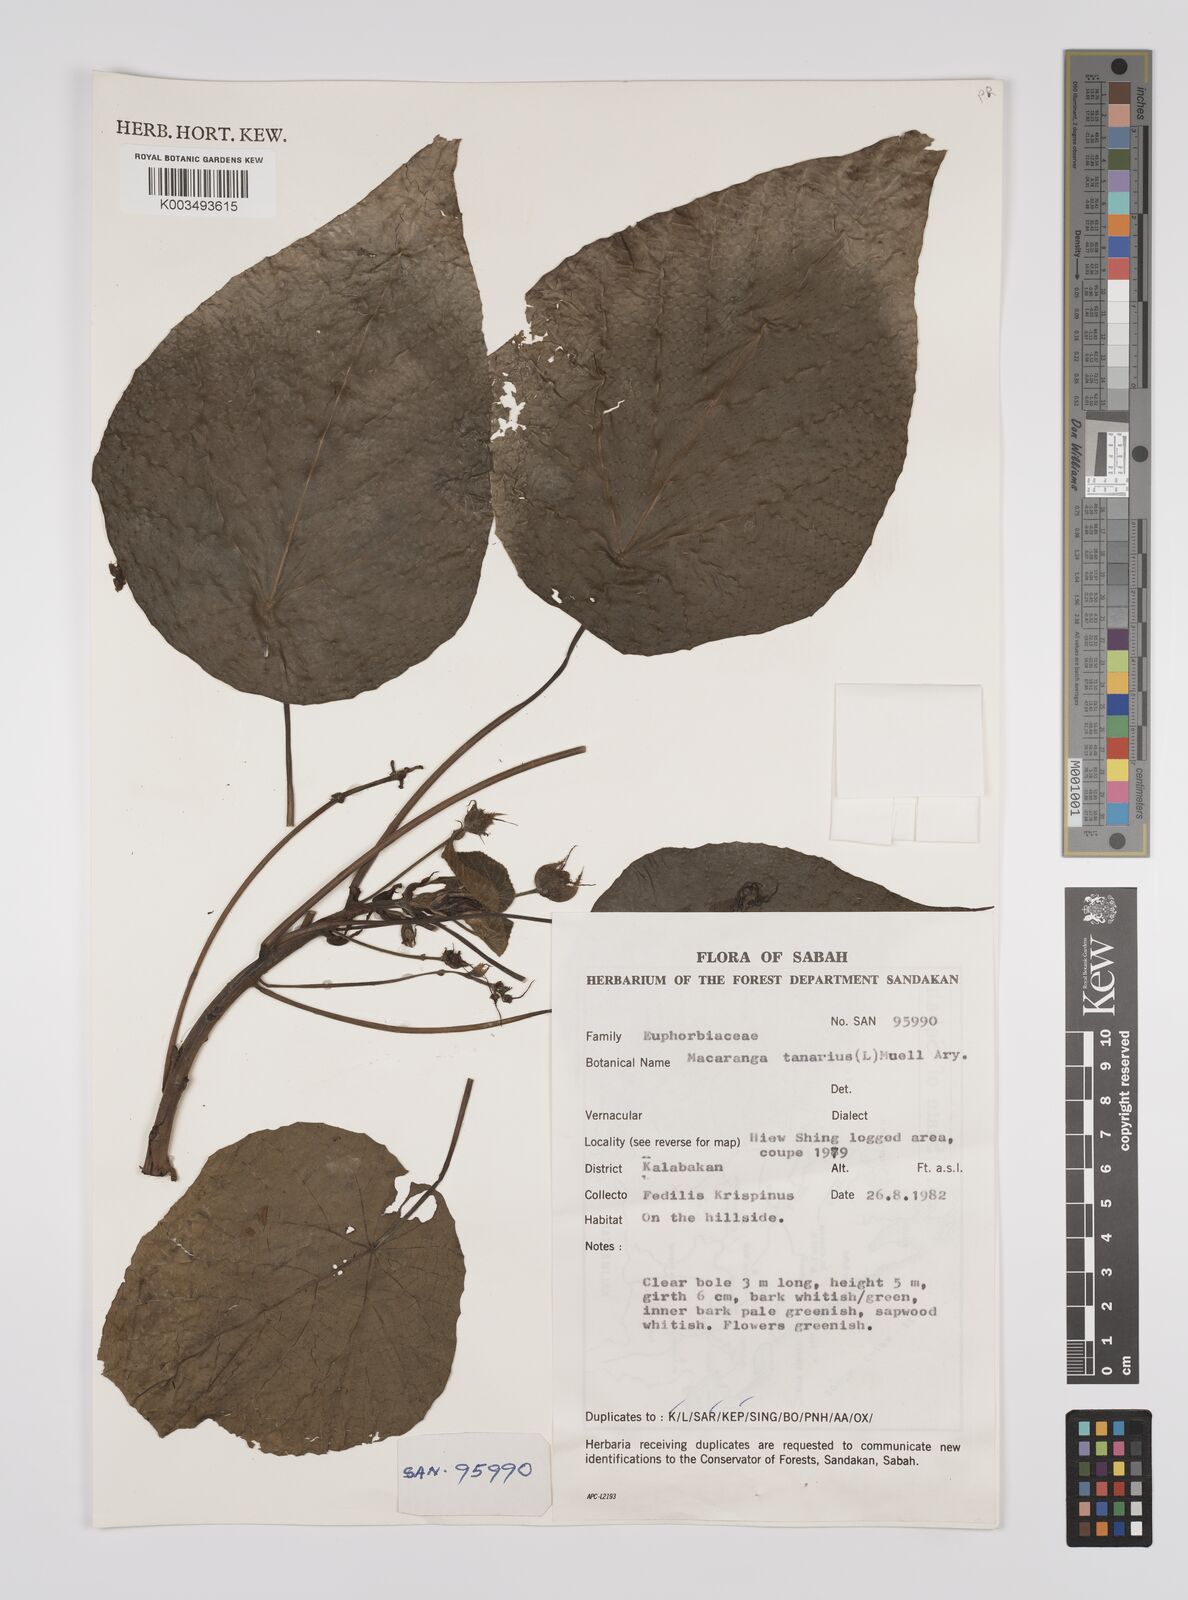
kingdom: Plantae
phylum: Tracheophyta
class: Magnoliopsida
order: Malpighiales
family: Euphorbiaceae
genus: Macaranga
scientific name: Macaranga tanarius
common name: Parasol leaf tree
